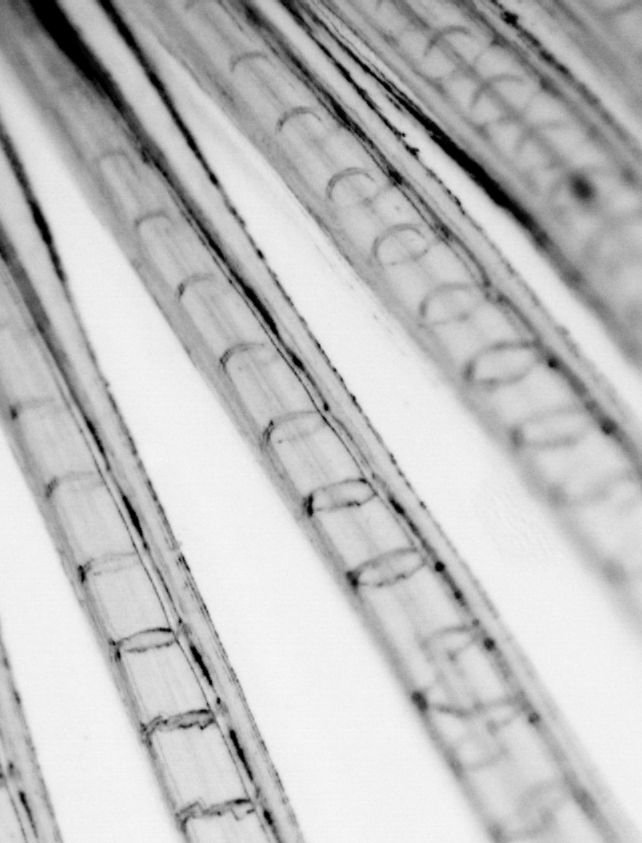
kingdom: Animalia
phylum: Chordata
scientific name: Chordata
